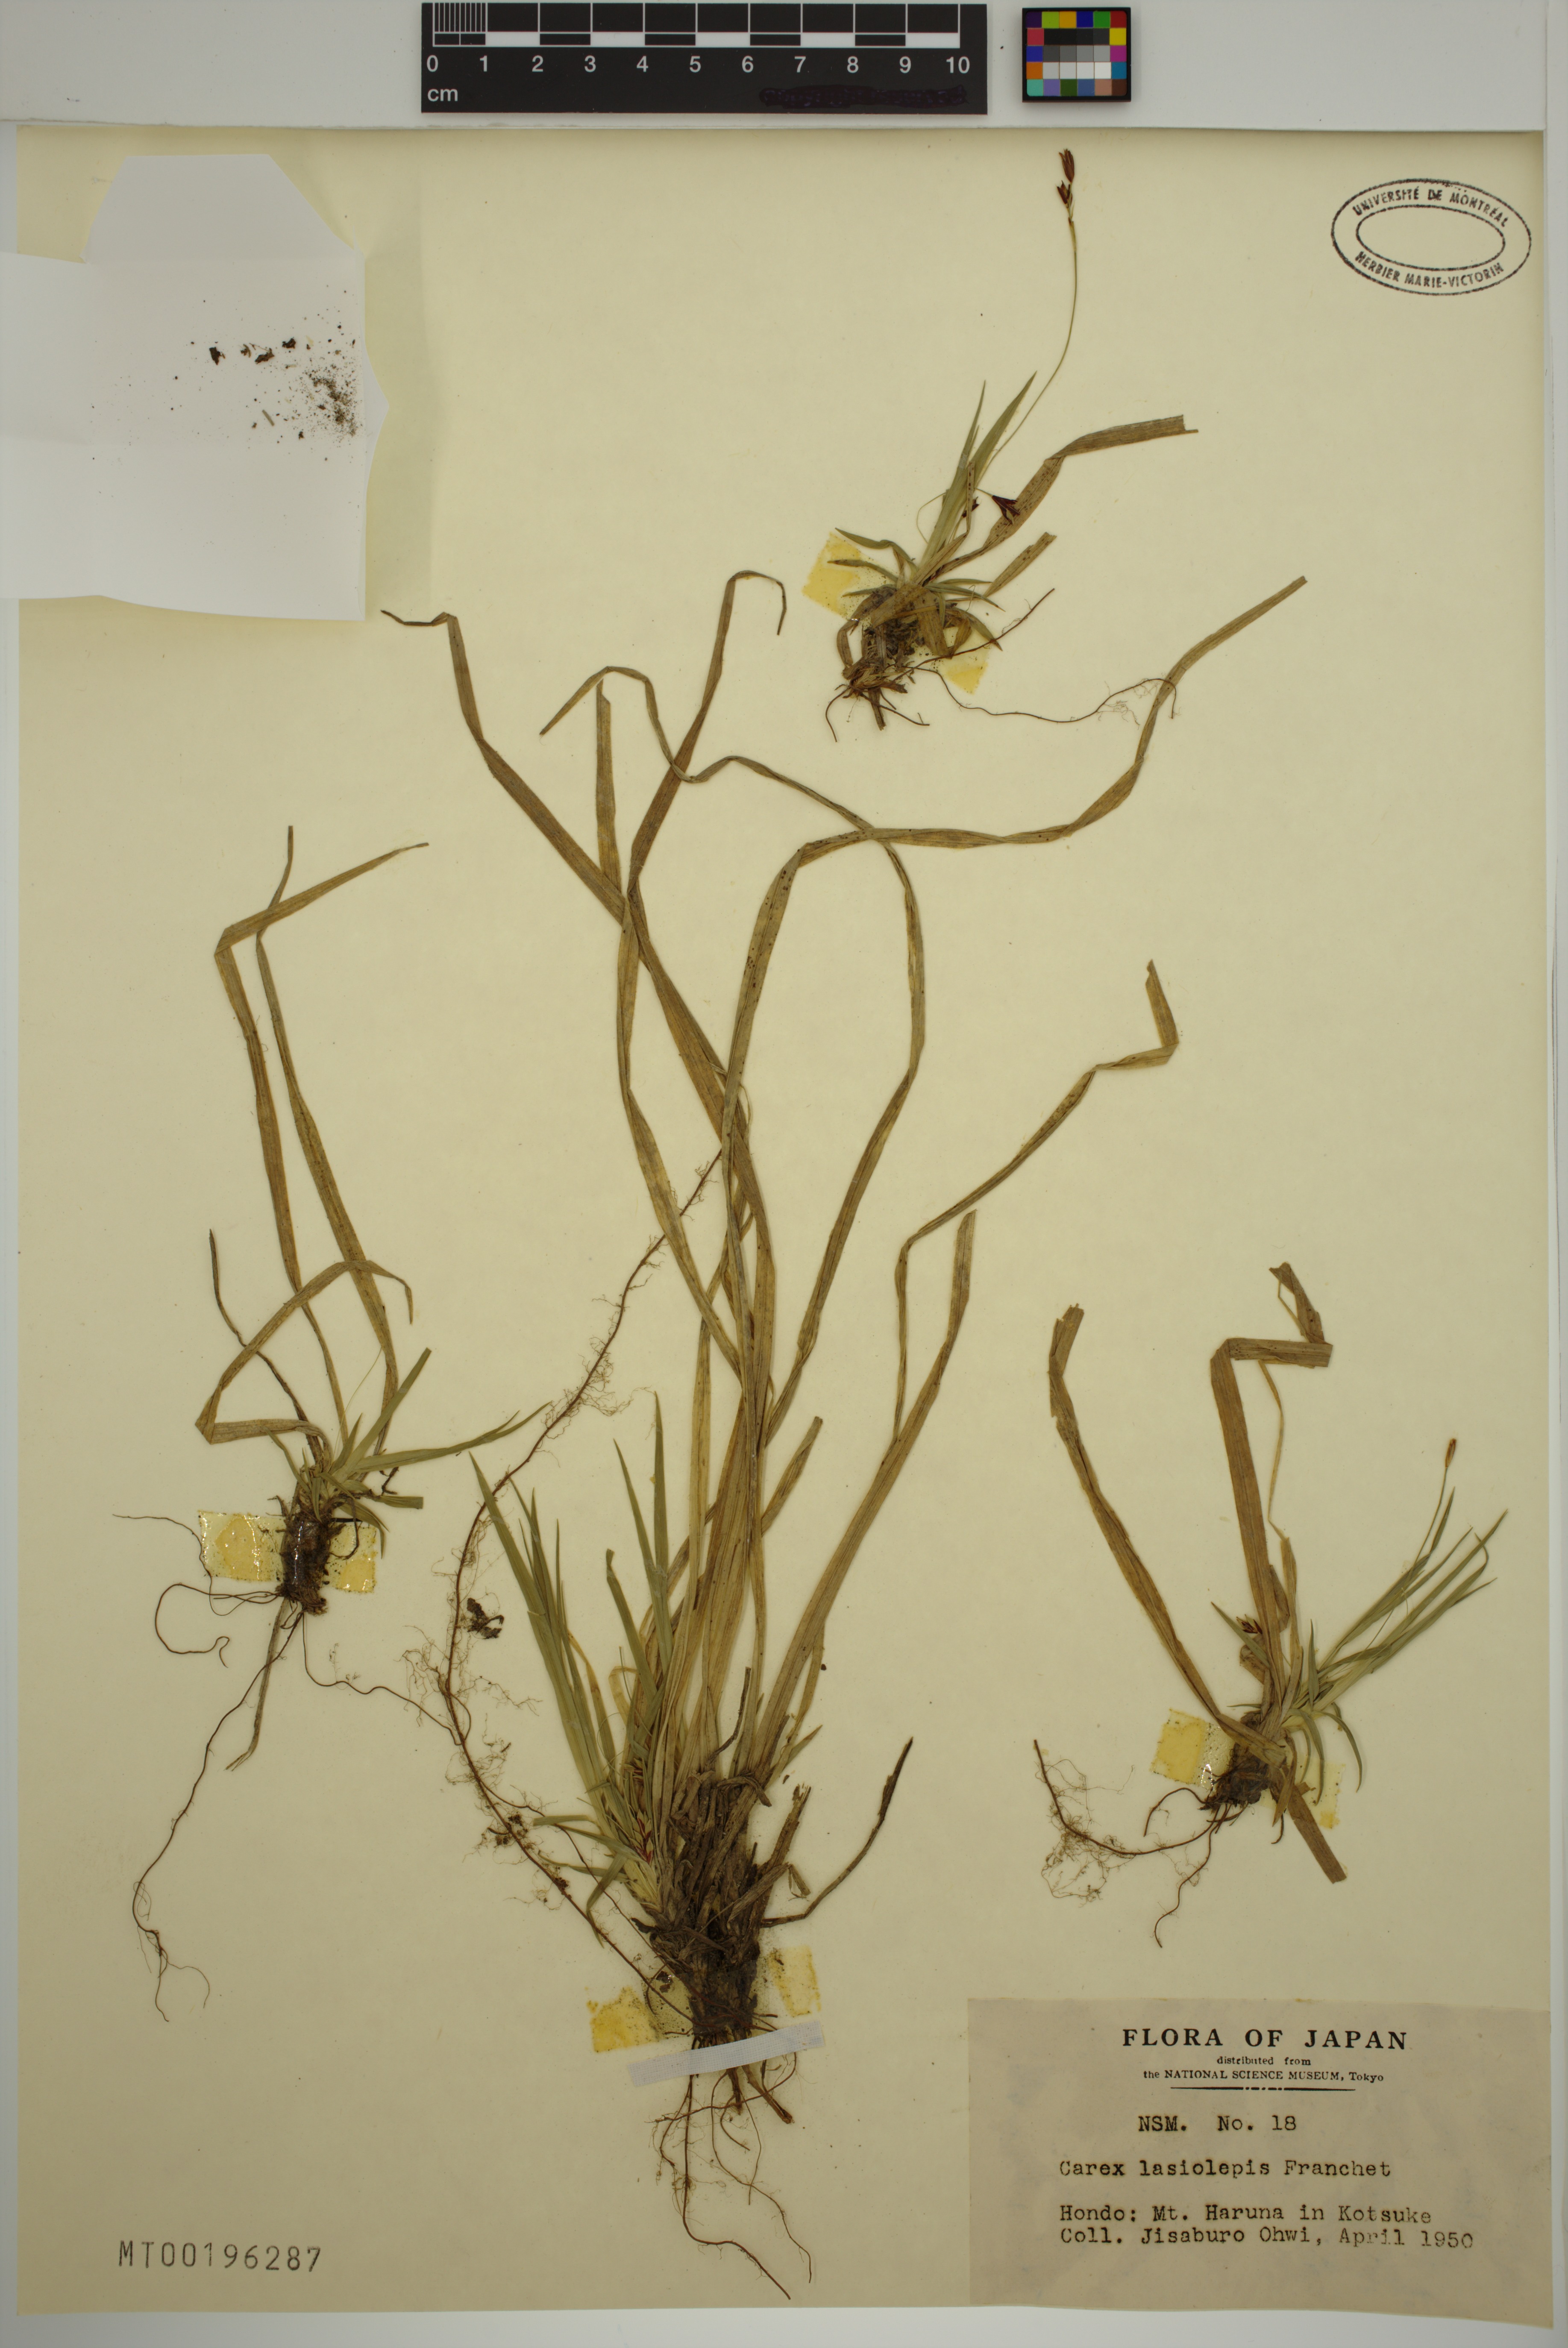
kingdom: Plantae
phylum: Tracheophyta
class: Liliopsida
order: Poales
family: Cyperaceae
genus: Carex
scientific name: Carex lasiolepis
